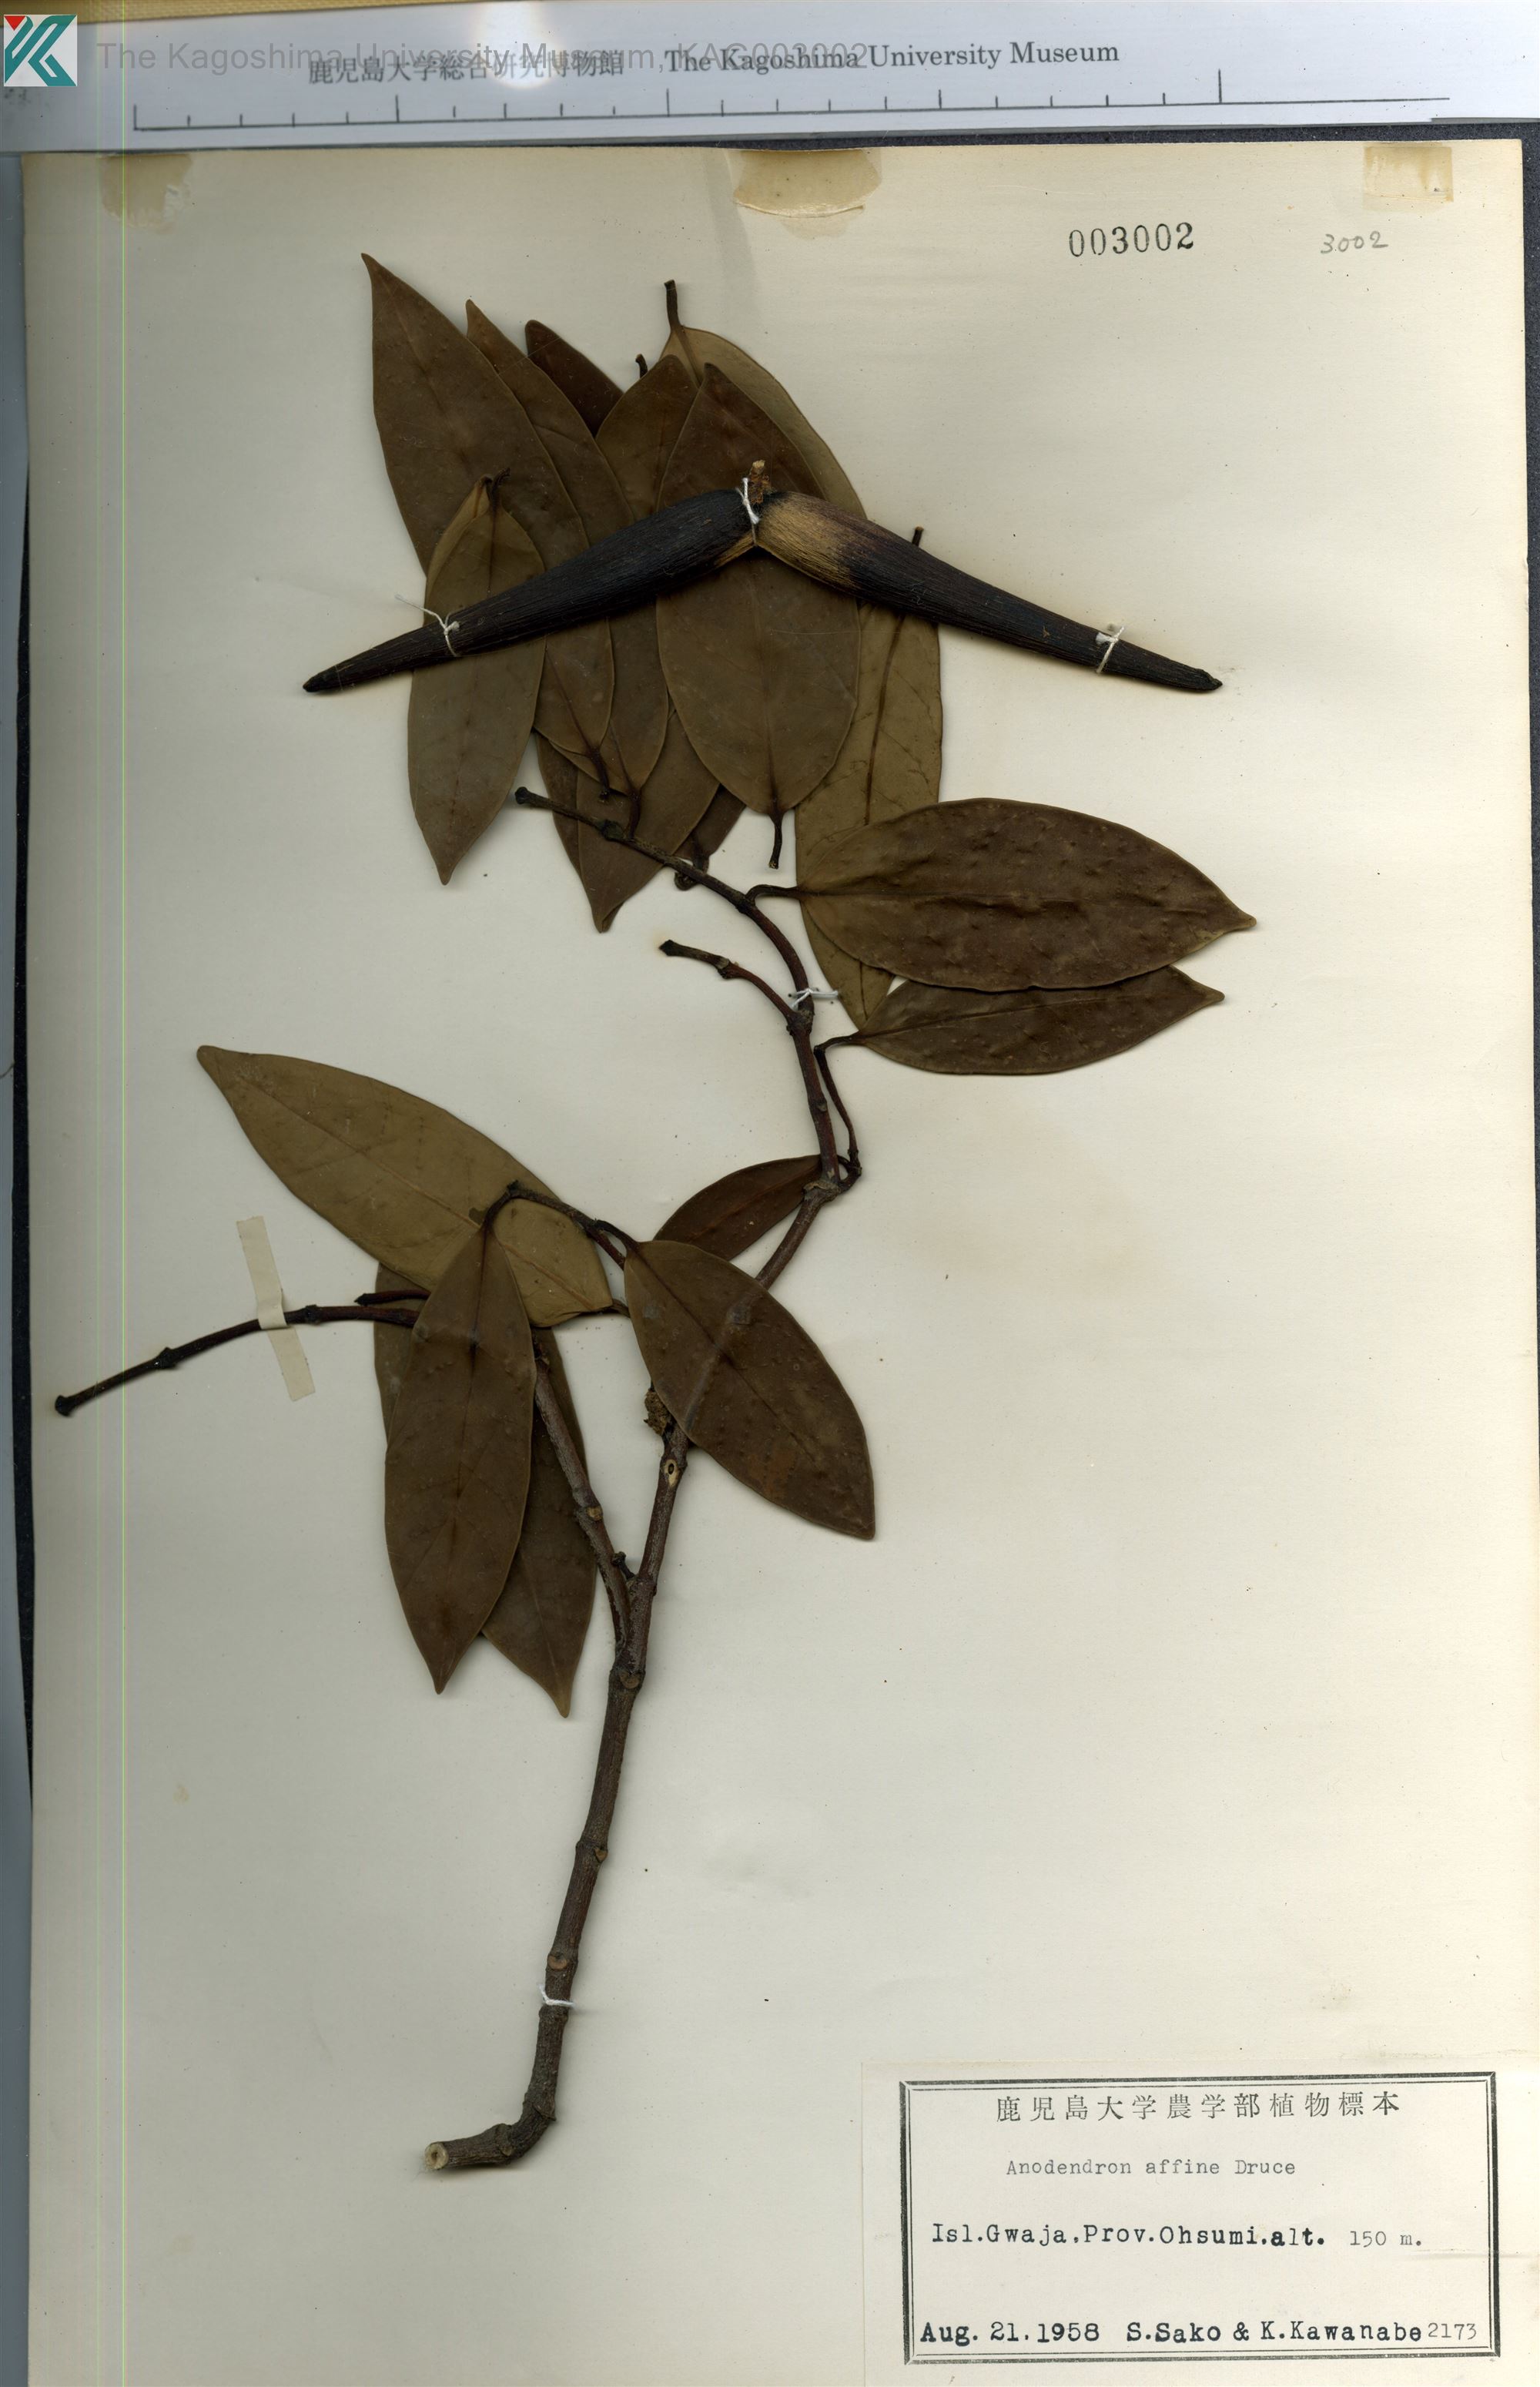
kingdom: Plantae
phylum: Tracheophyta
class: Magnoliopsida
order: Gentianales
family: Apocynaceae
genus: Anodendron
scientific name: Anodendron affine
